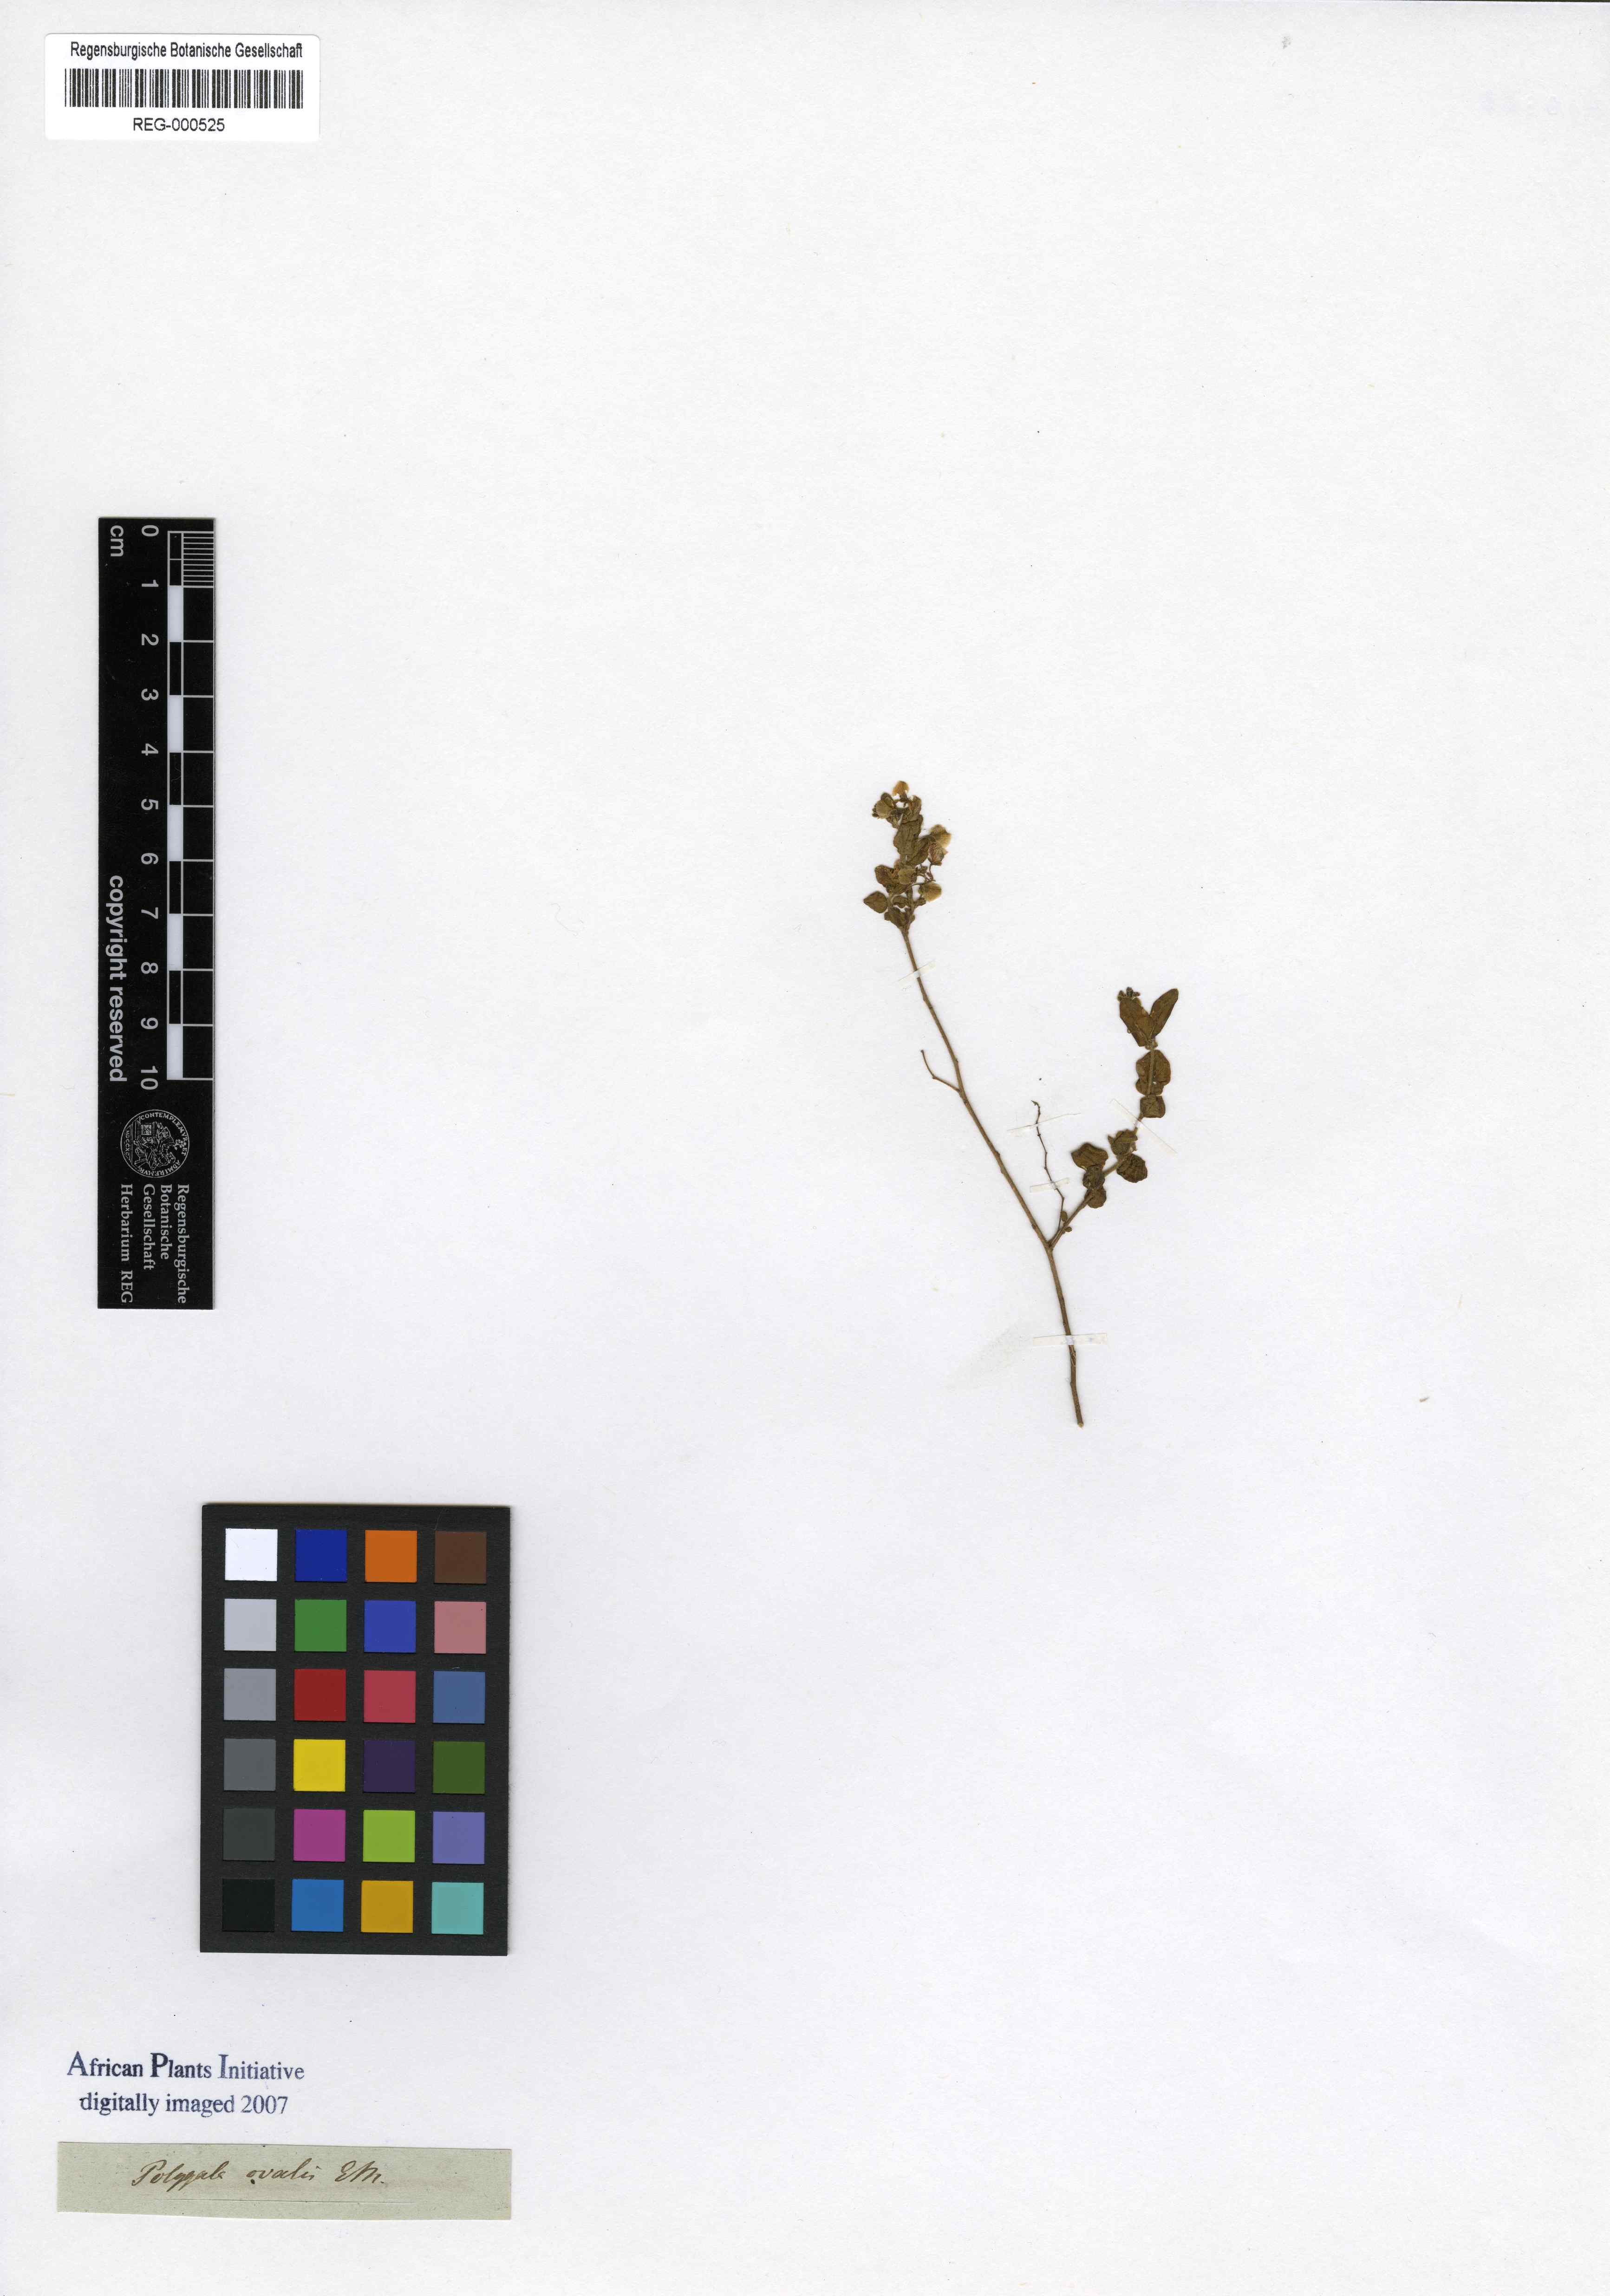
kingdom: Plantae
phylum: Tracheophyta
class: Magnoliopsida
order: Fabales
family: Polygalaceae
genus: Polygala
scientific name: Polygala ohlendorfiana
